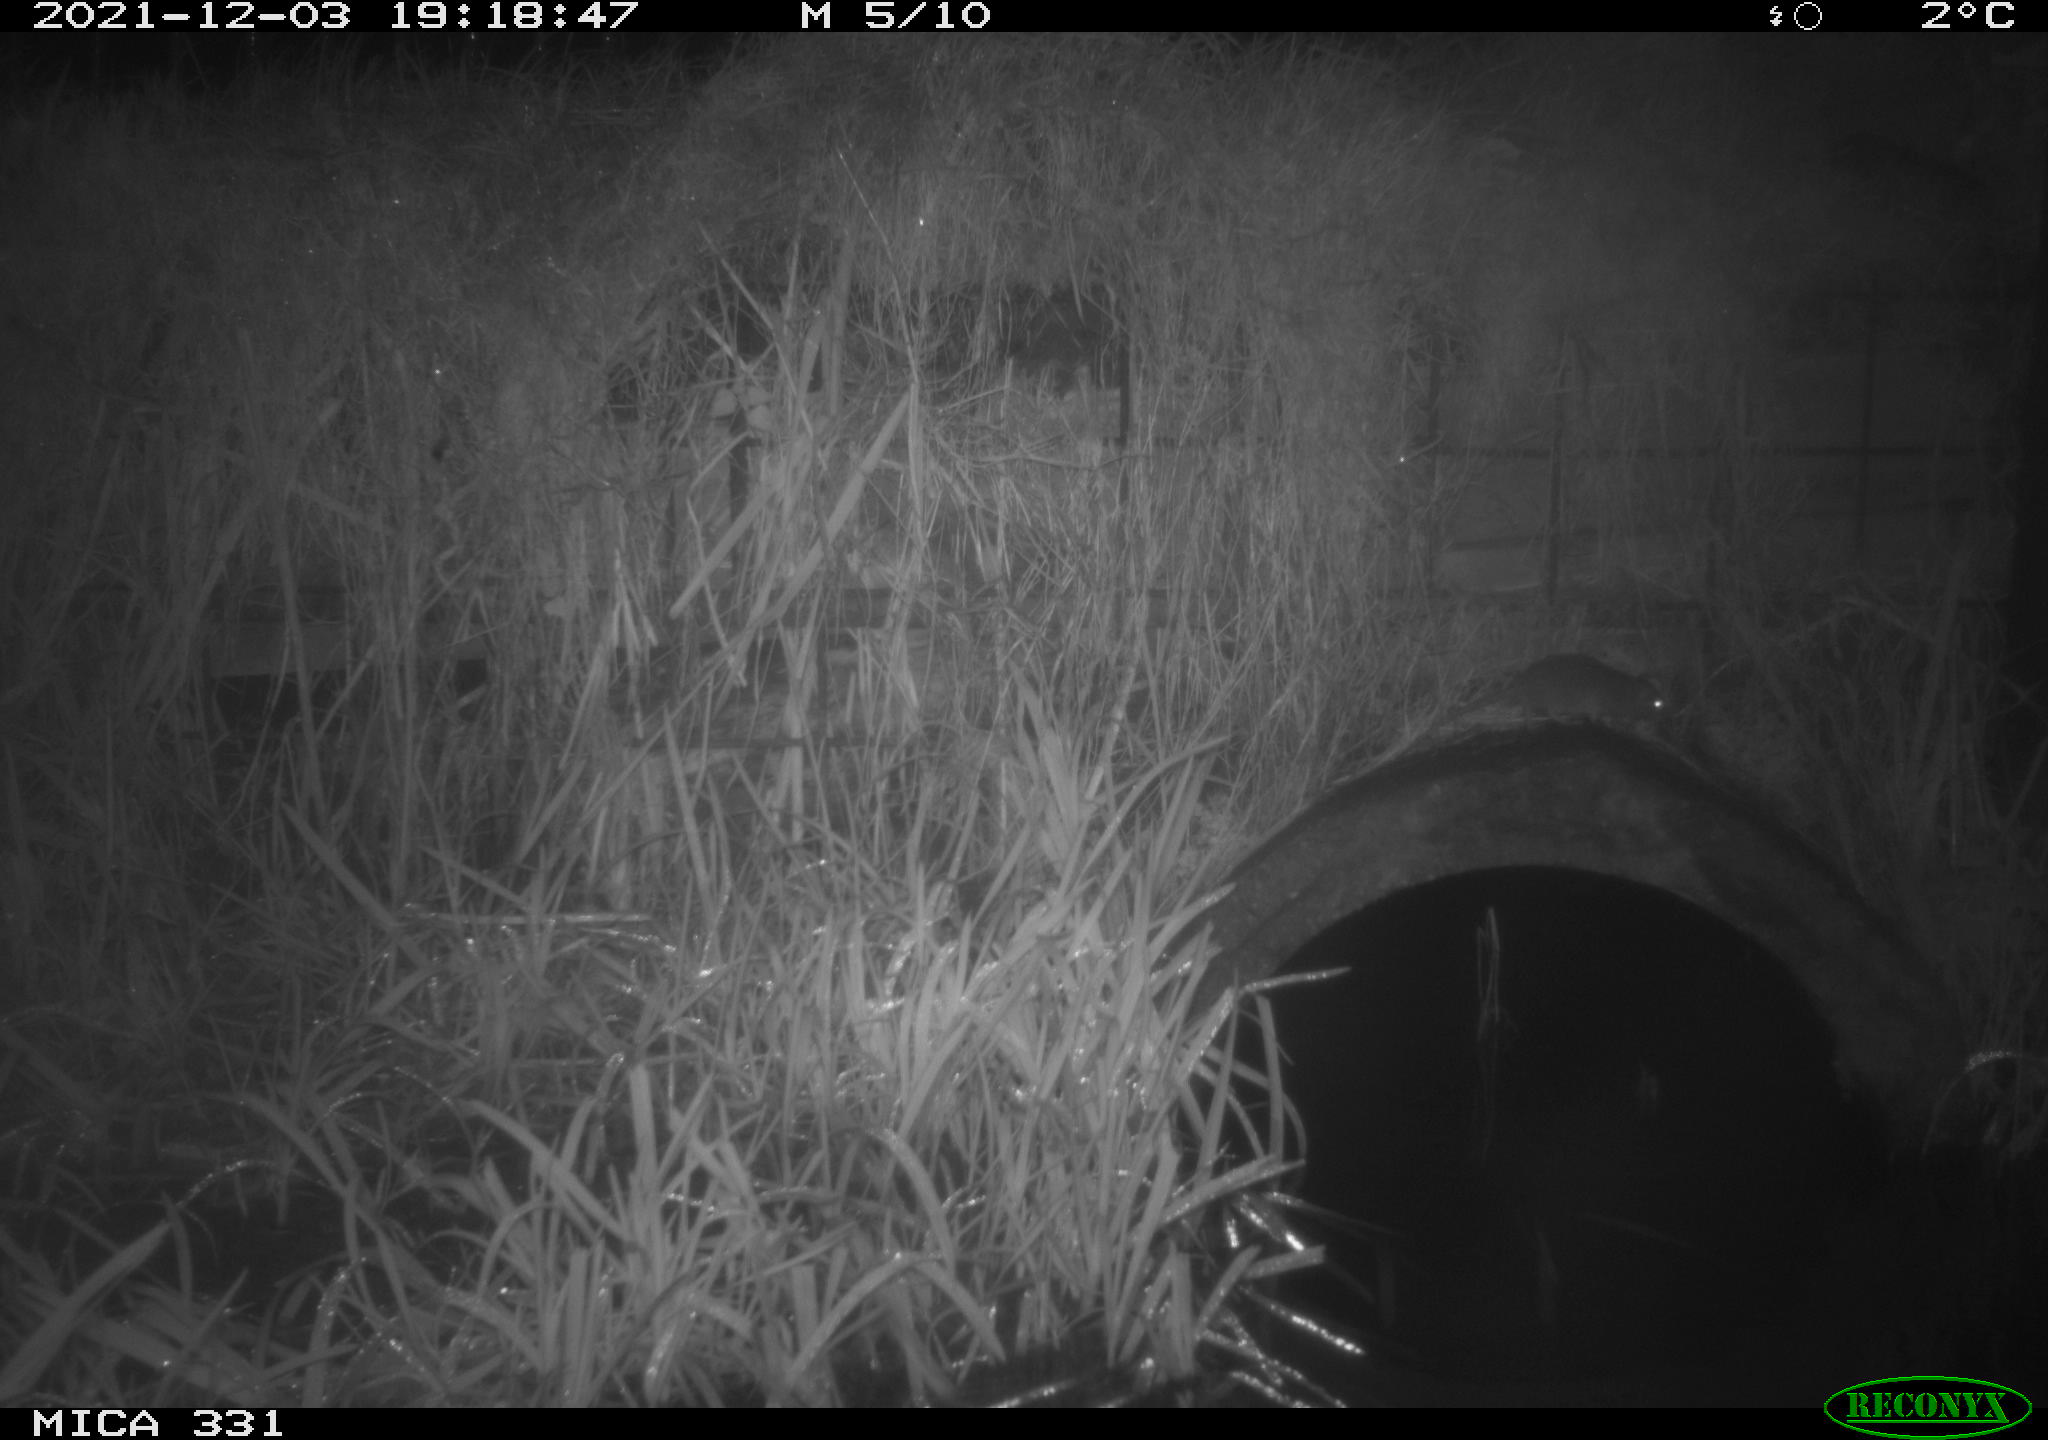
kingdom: Animalia
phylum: Chordata
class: Mammalia
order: Rodentia
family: Muridae
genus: Rattus
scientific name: Rattus norvegicus
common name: Brown rat
